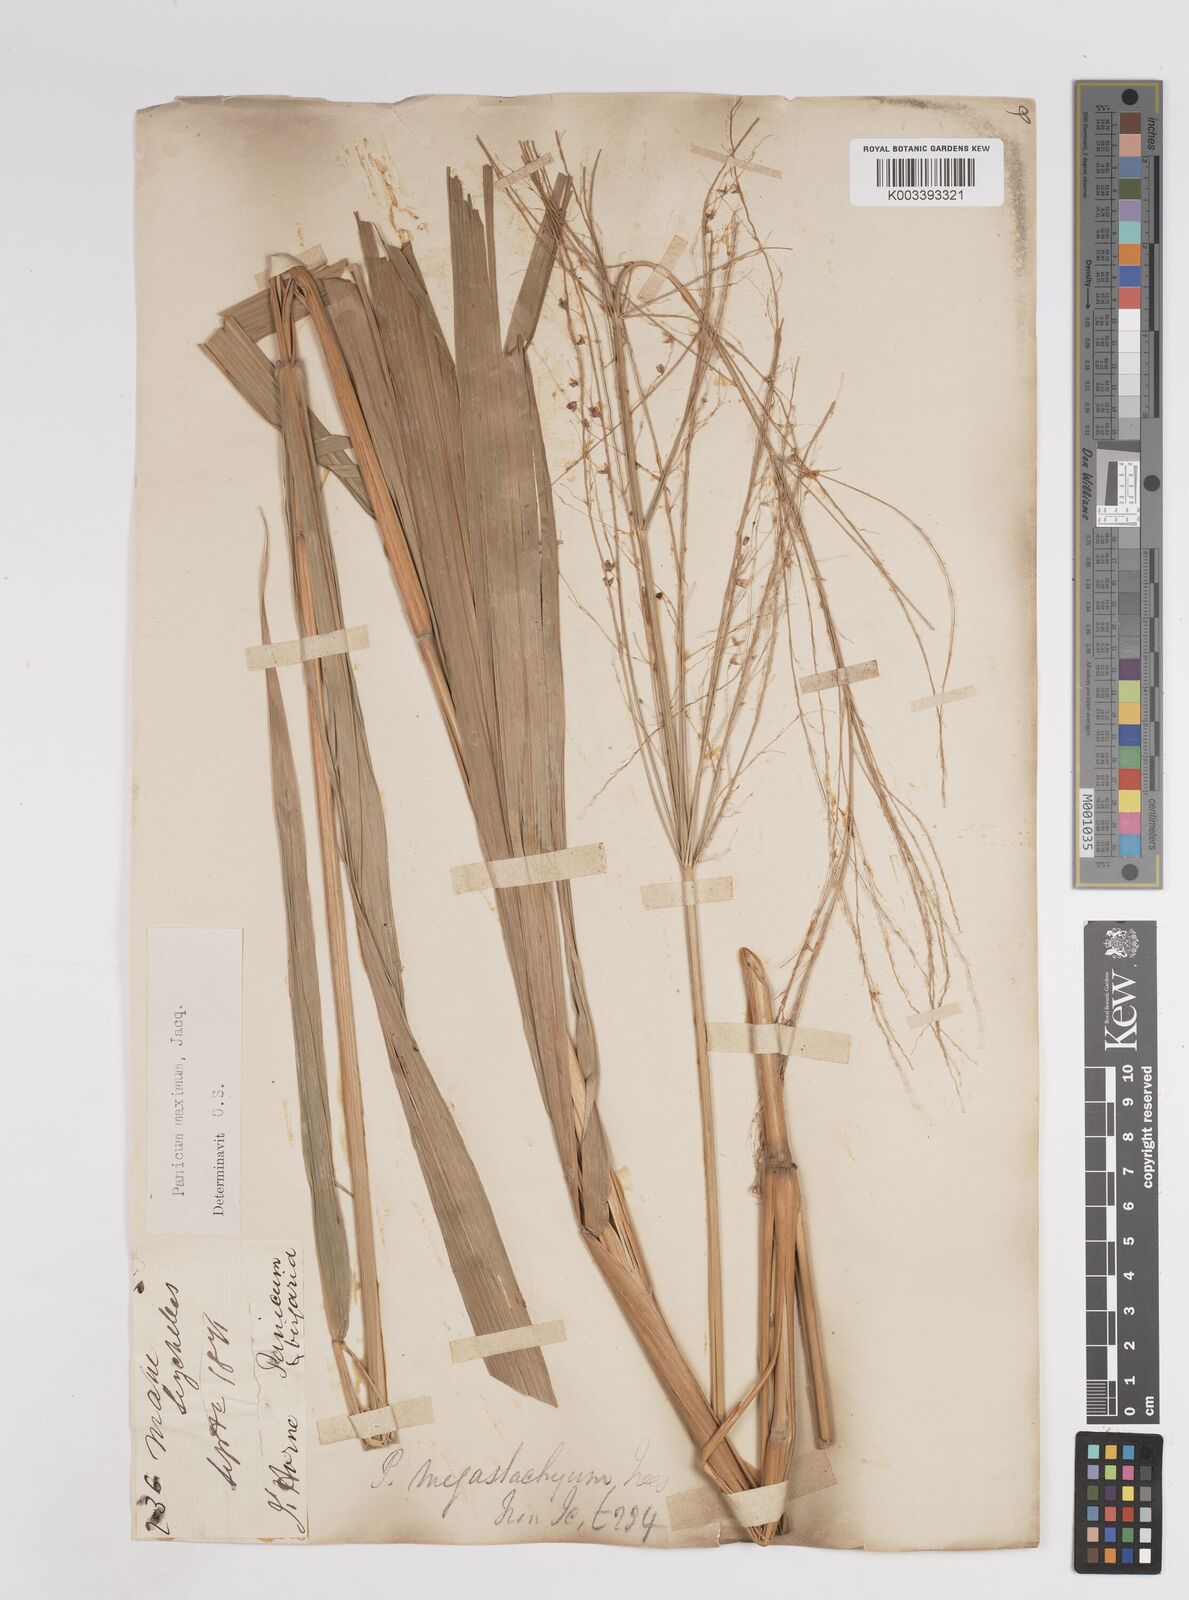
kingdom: Plantae
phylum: Tracheophyta
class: Liliopsida
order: Poales
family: Poaceae
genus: Megathyrsus
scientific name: Megathyrsus maximus
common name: Guineagrass
